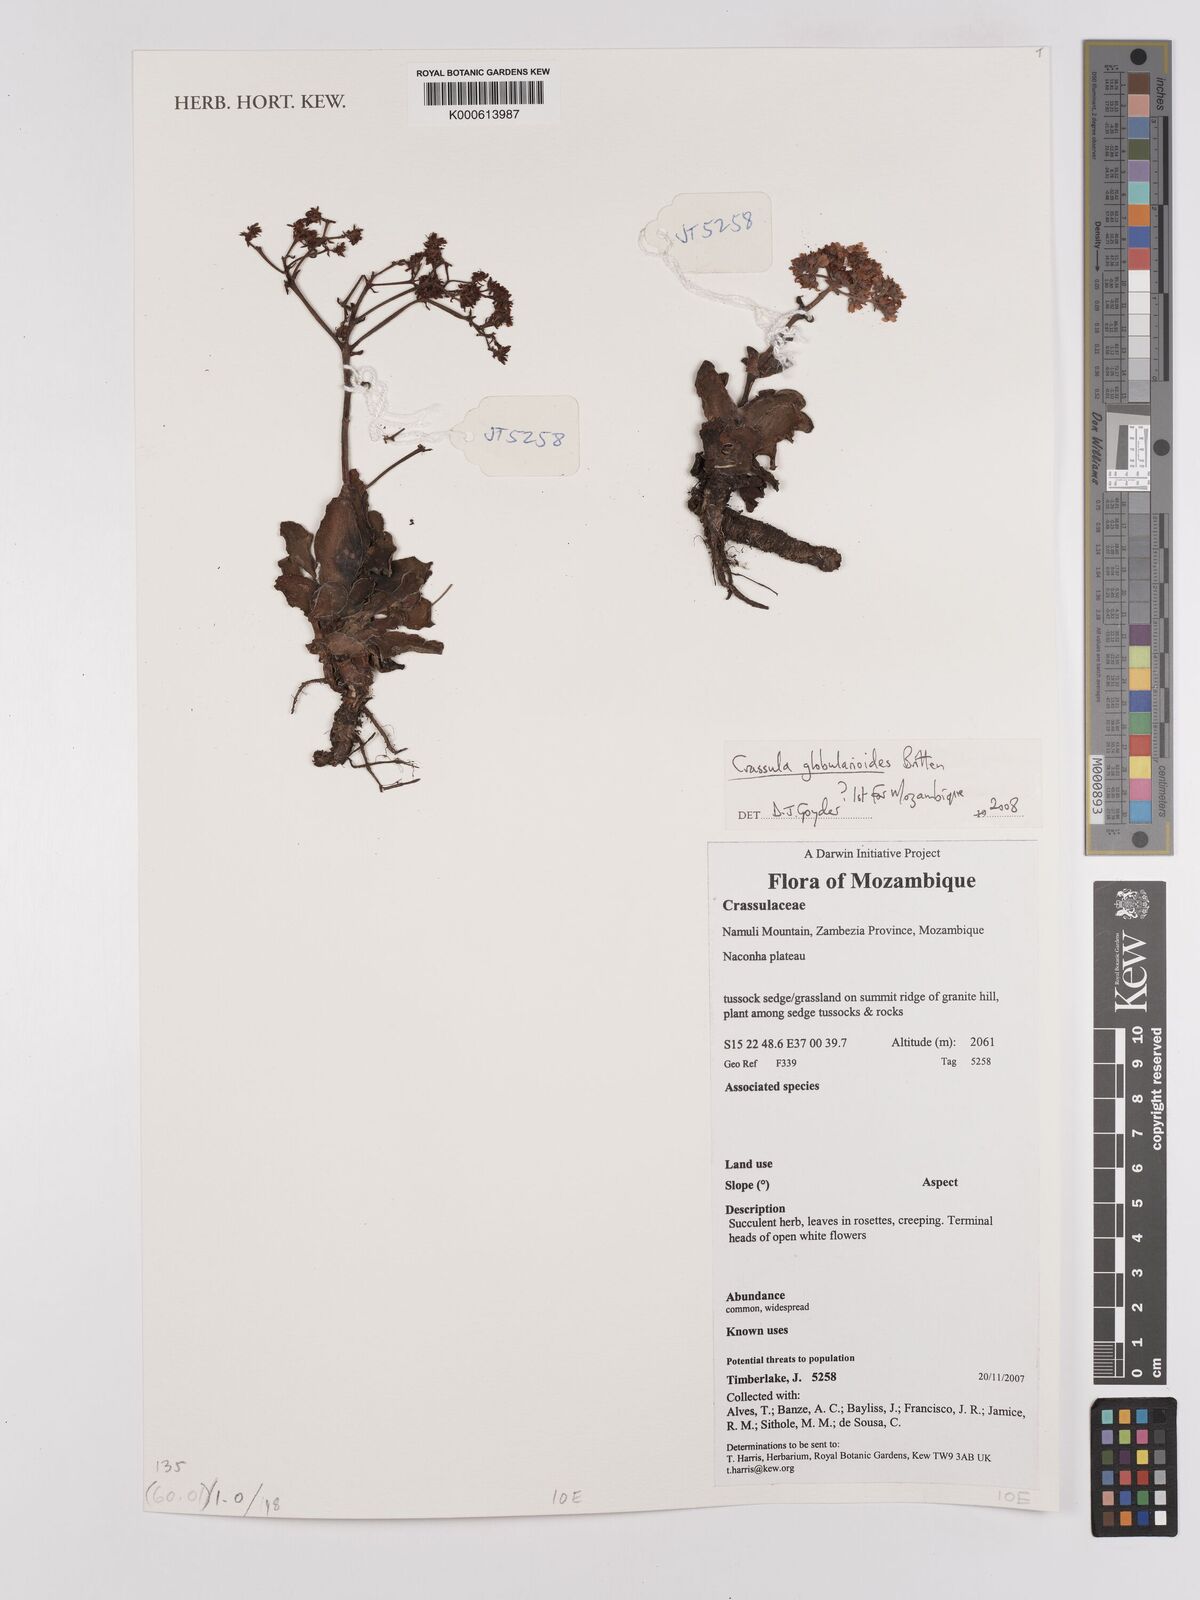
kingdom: Plantae
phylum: Tracheophyta
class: Magnoliopsida
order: Saxifragales
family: Crassulaceae
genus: Crassula
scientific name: Crassula globularioides
